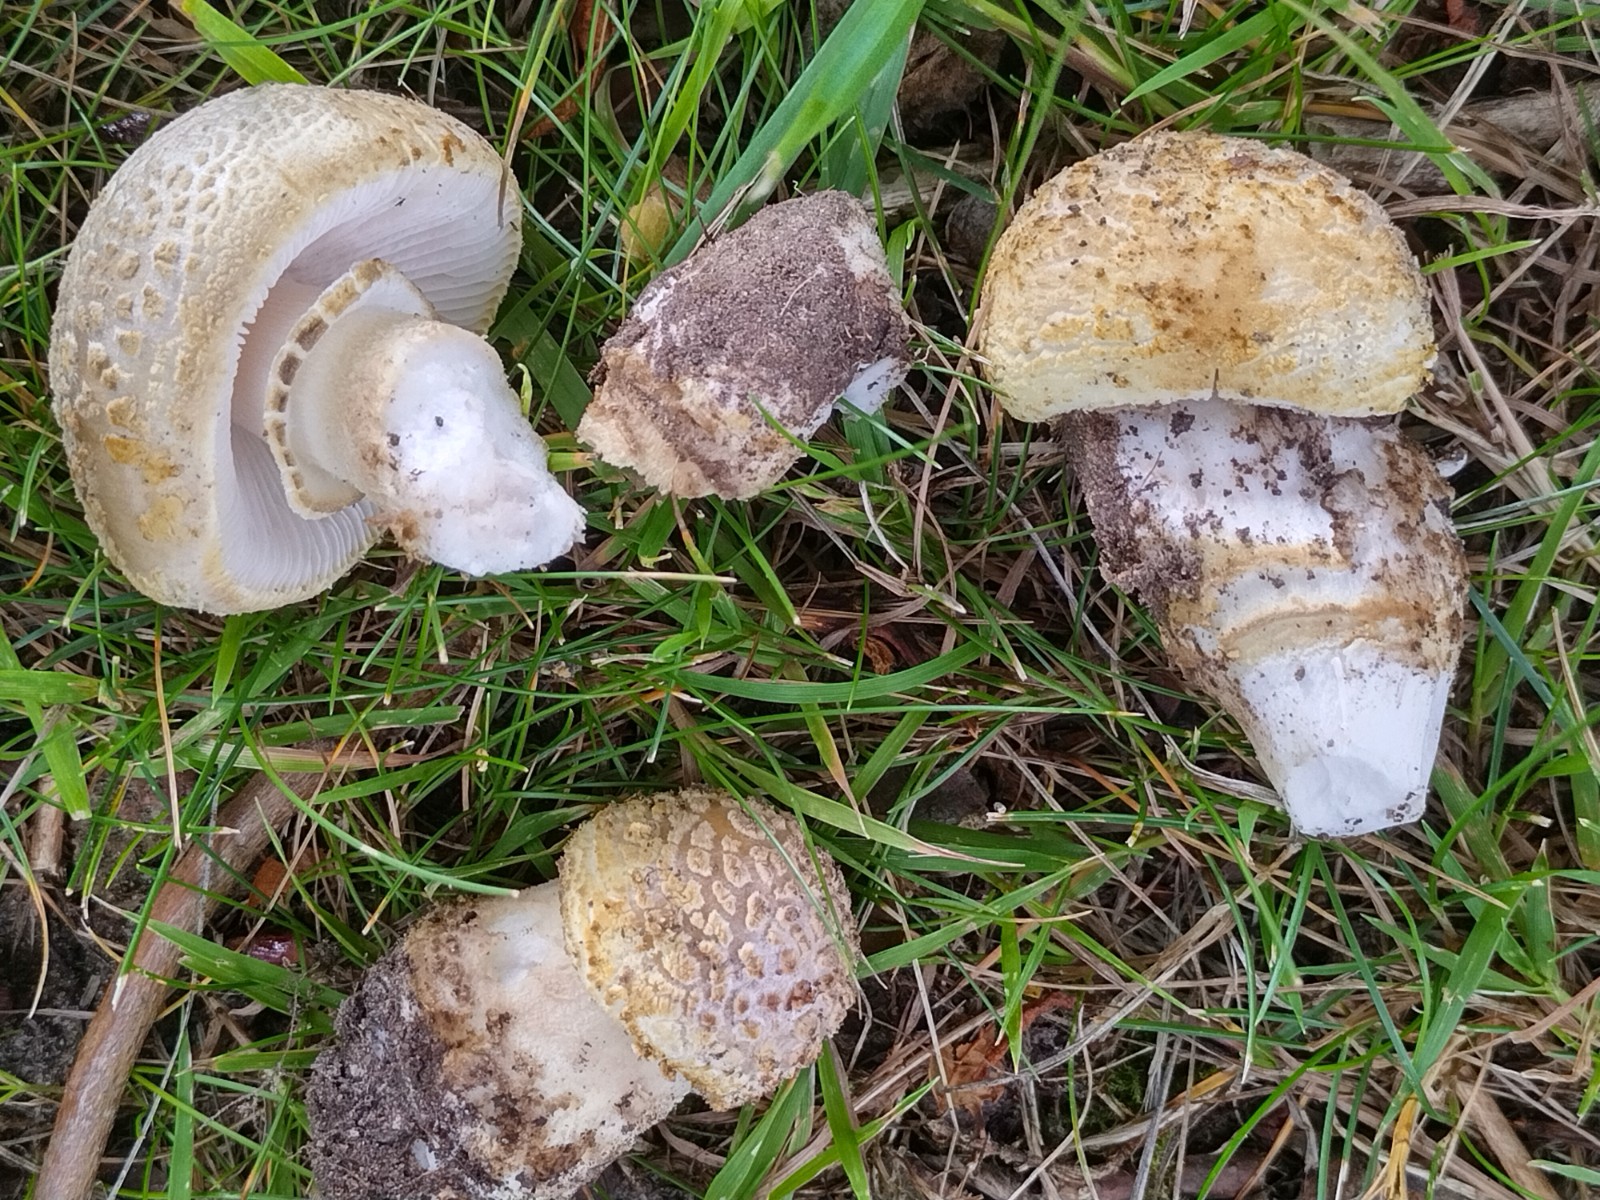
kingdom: Fungi
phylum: Basidiomycota
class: Agaricomycetes
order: Agaricales
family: Amanitaceae
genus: Amanita
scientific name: Amanita franchetii
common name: gulrandet fluesvamp
